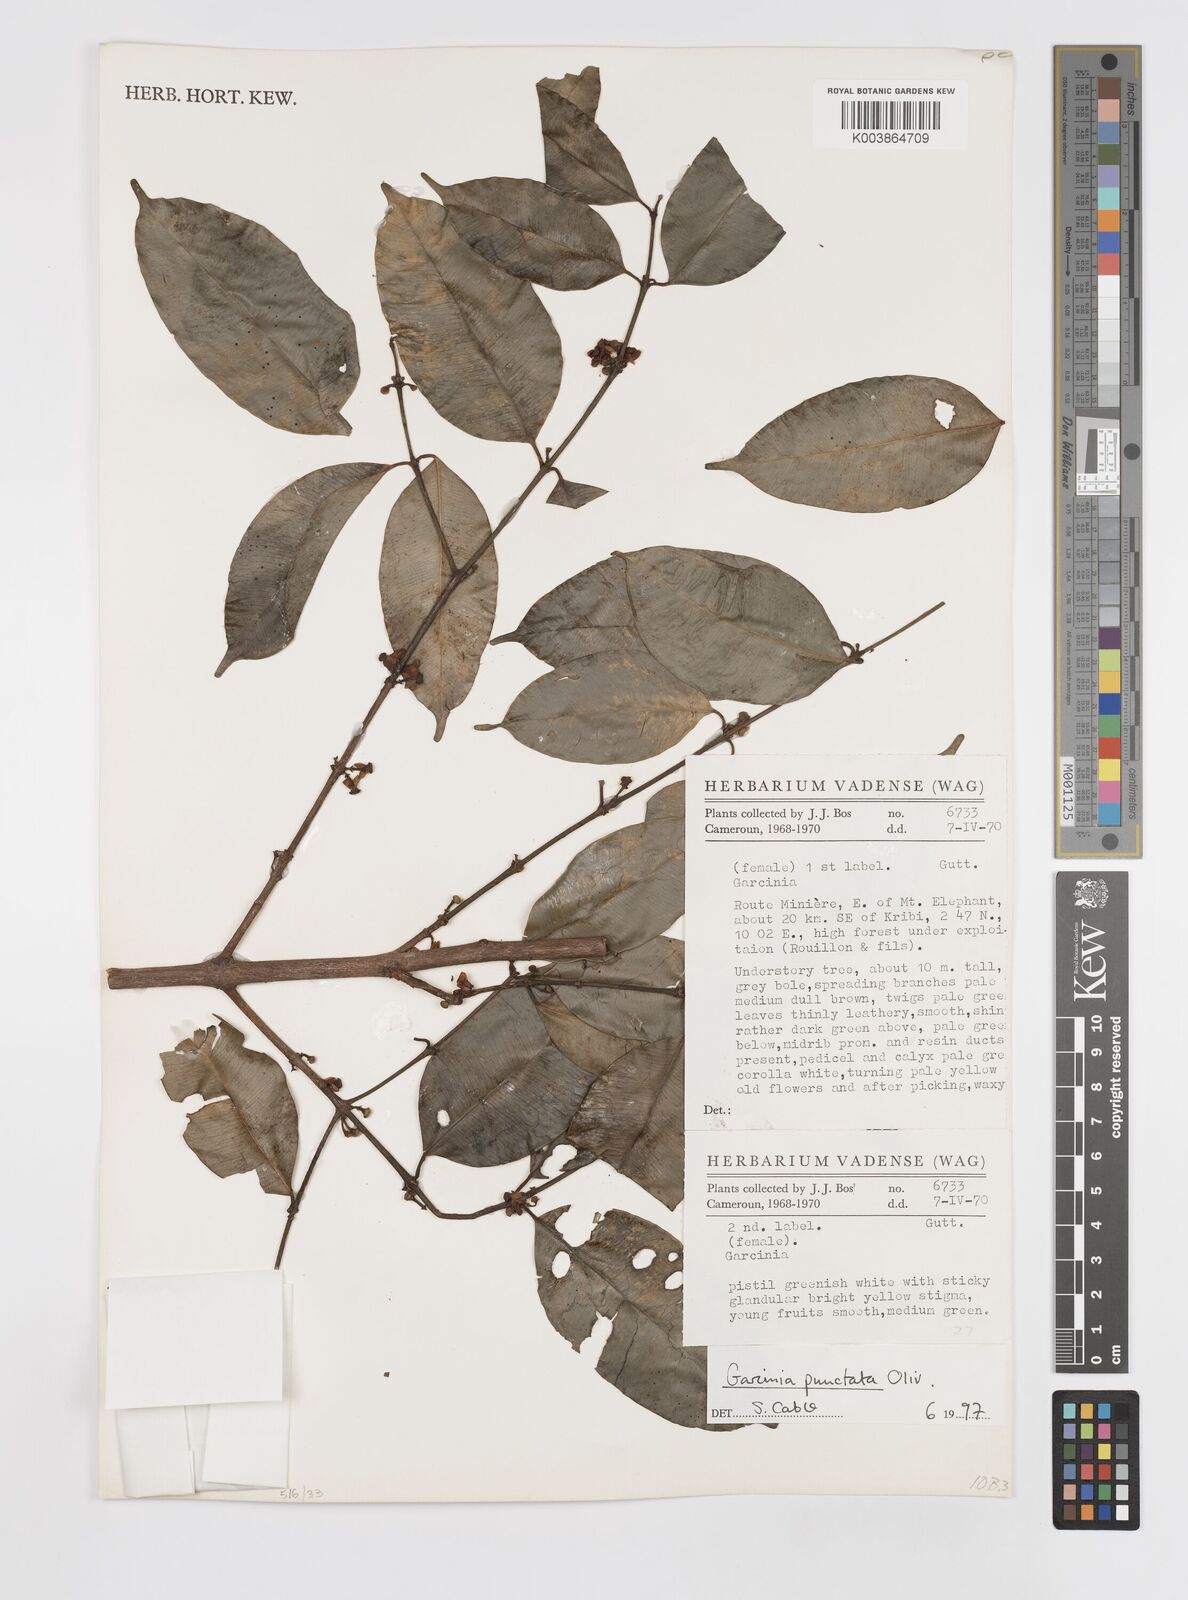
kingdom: Plantae
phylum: Tracheophyta
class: Magnoliopsida
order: Malpighiales
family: Clusiaceae
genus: Garcinia
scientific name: Garcinia punctata
